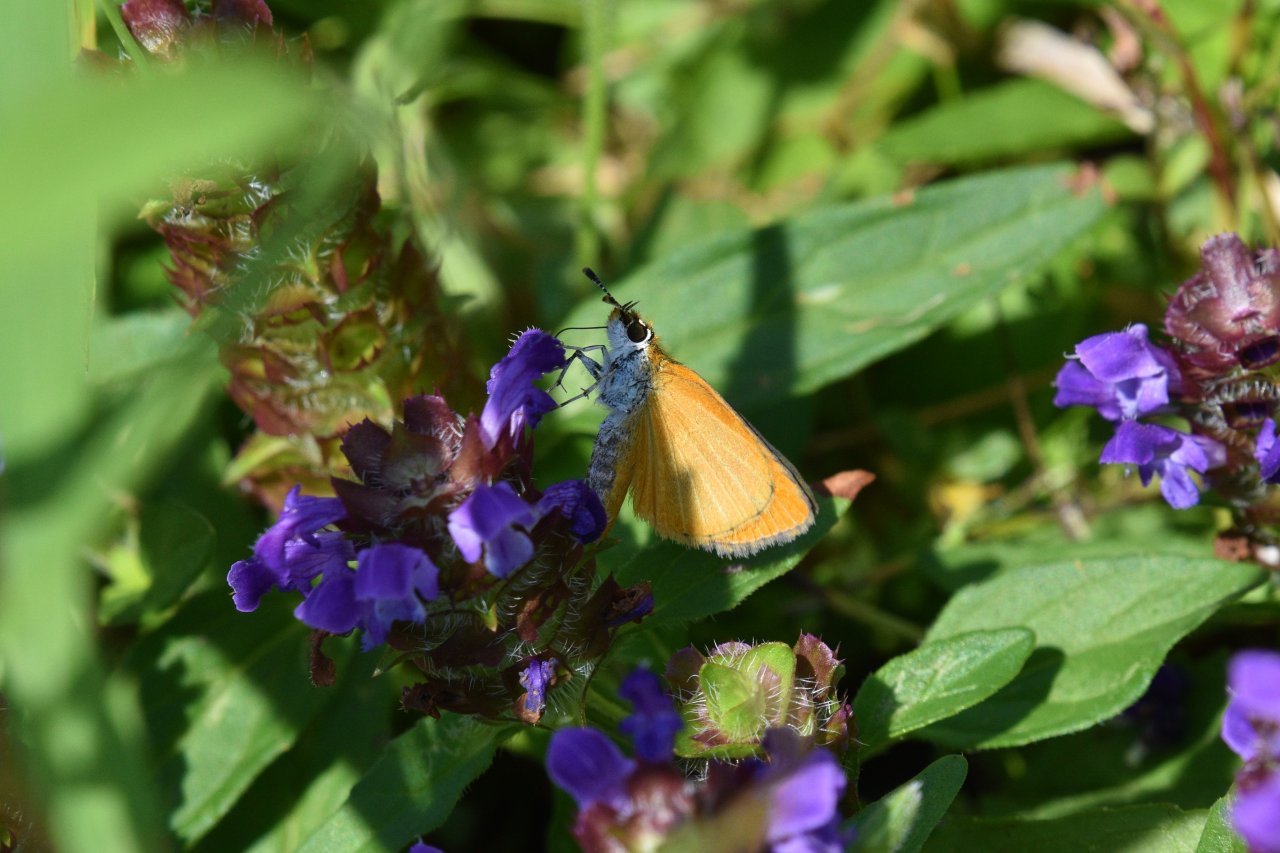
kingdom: Animalia
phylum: Arthropoda
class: Insecta
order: Lepidoptera
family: Hesperiidae
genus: Ancyloxypha
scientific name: Ancyloxypha numitor
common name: Least Skipper
